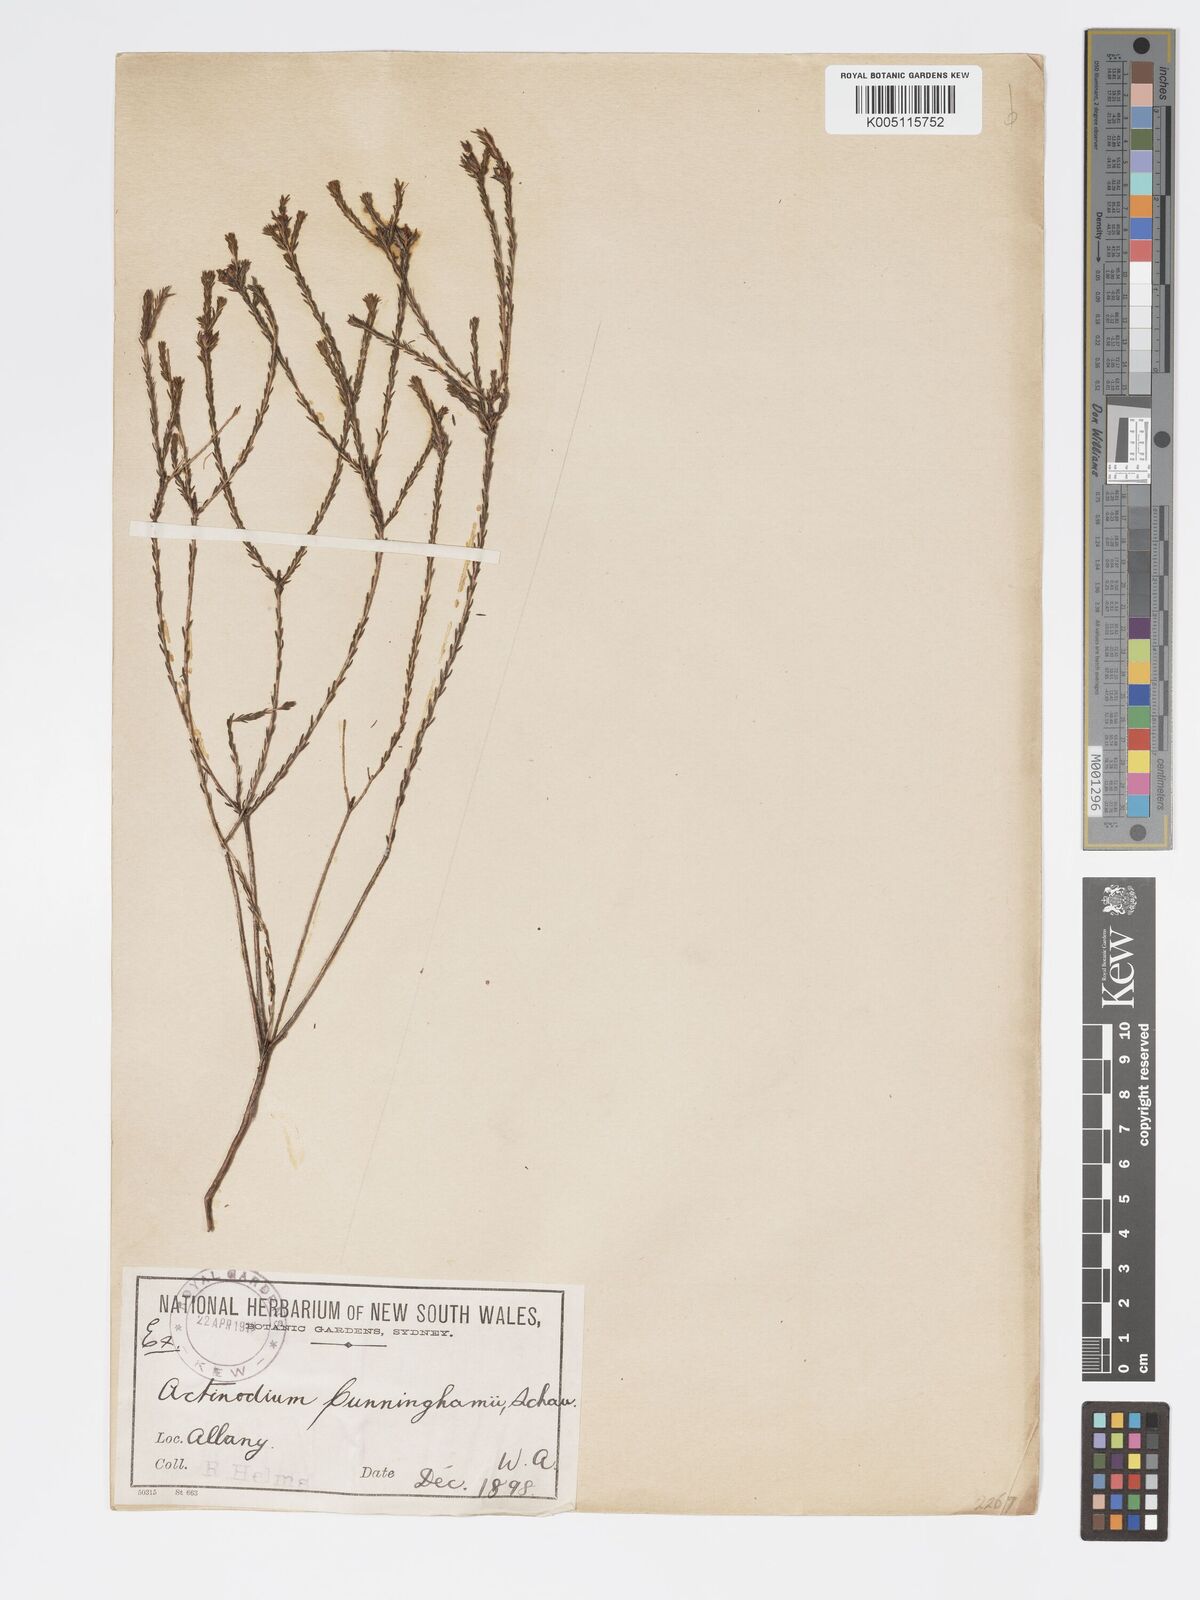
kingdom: Plantae
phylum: Tracheophyta
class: Magnoliopsida
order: Myrtales
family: Myrtaceae
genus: Actinodium
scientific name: Actinodium cunninghamii
